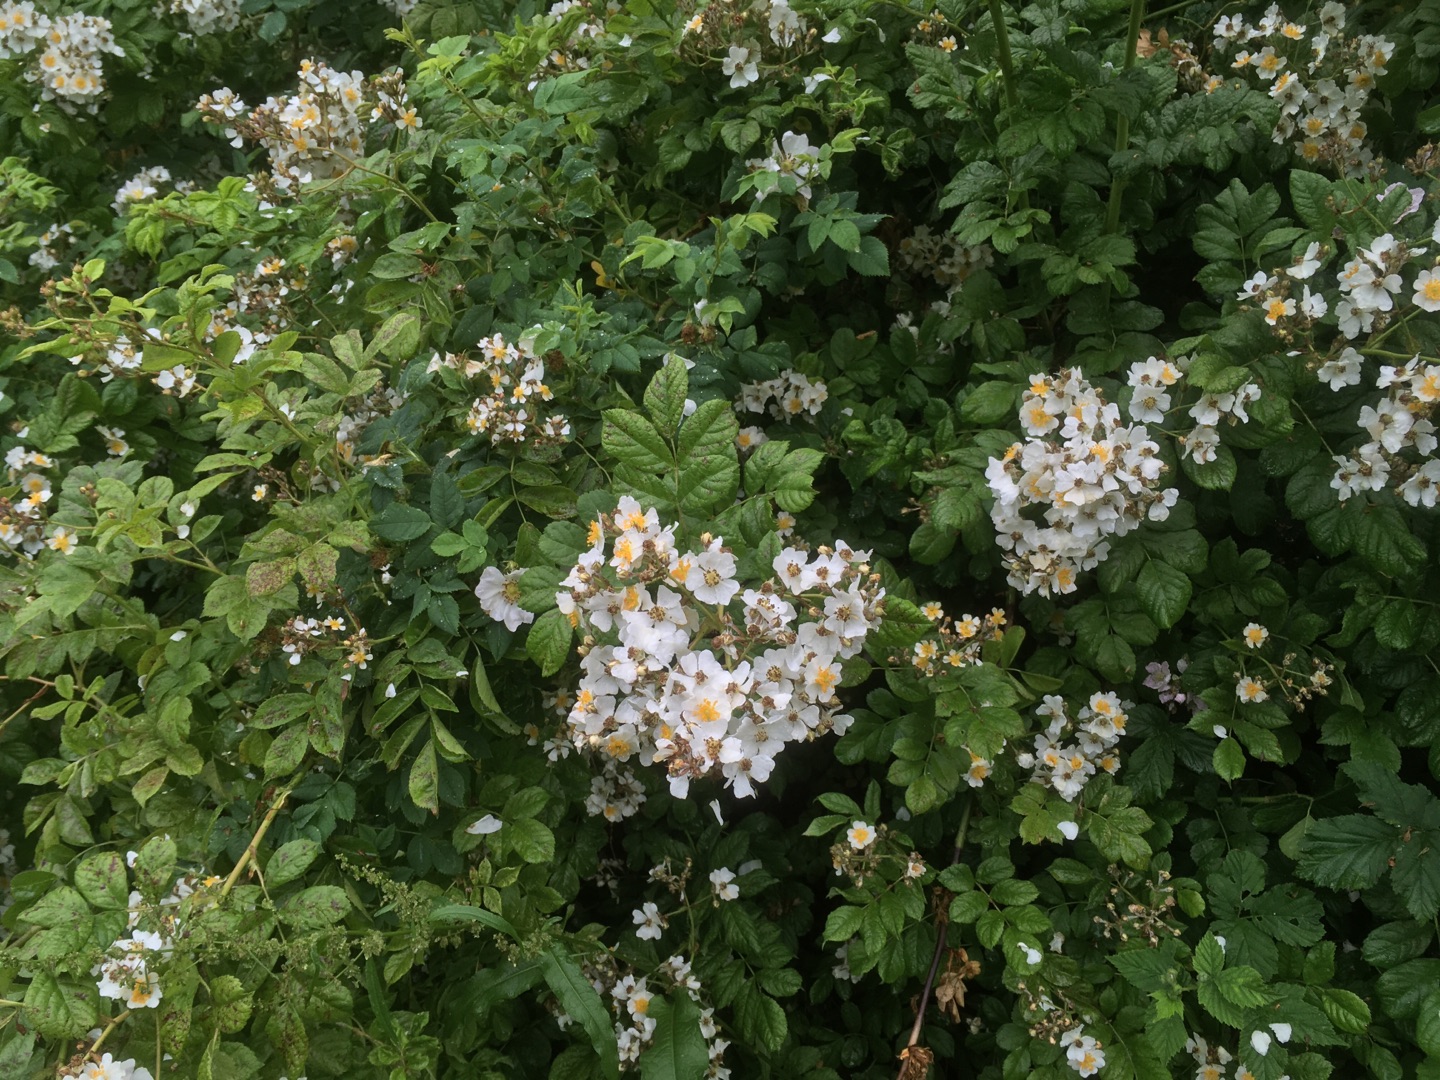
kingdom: Plantae
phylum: Tracheophyta
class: Magnoliopsida
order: Rosales
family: Rosaceae
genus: Rosa
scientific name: Rosa multiflora
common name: Mangeblomstret rose
